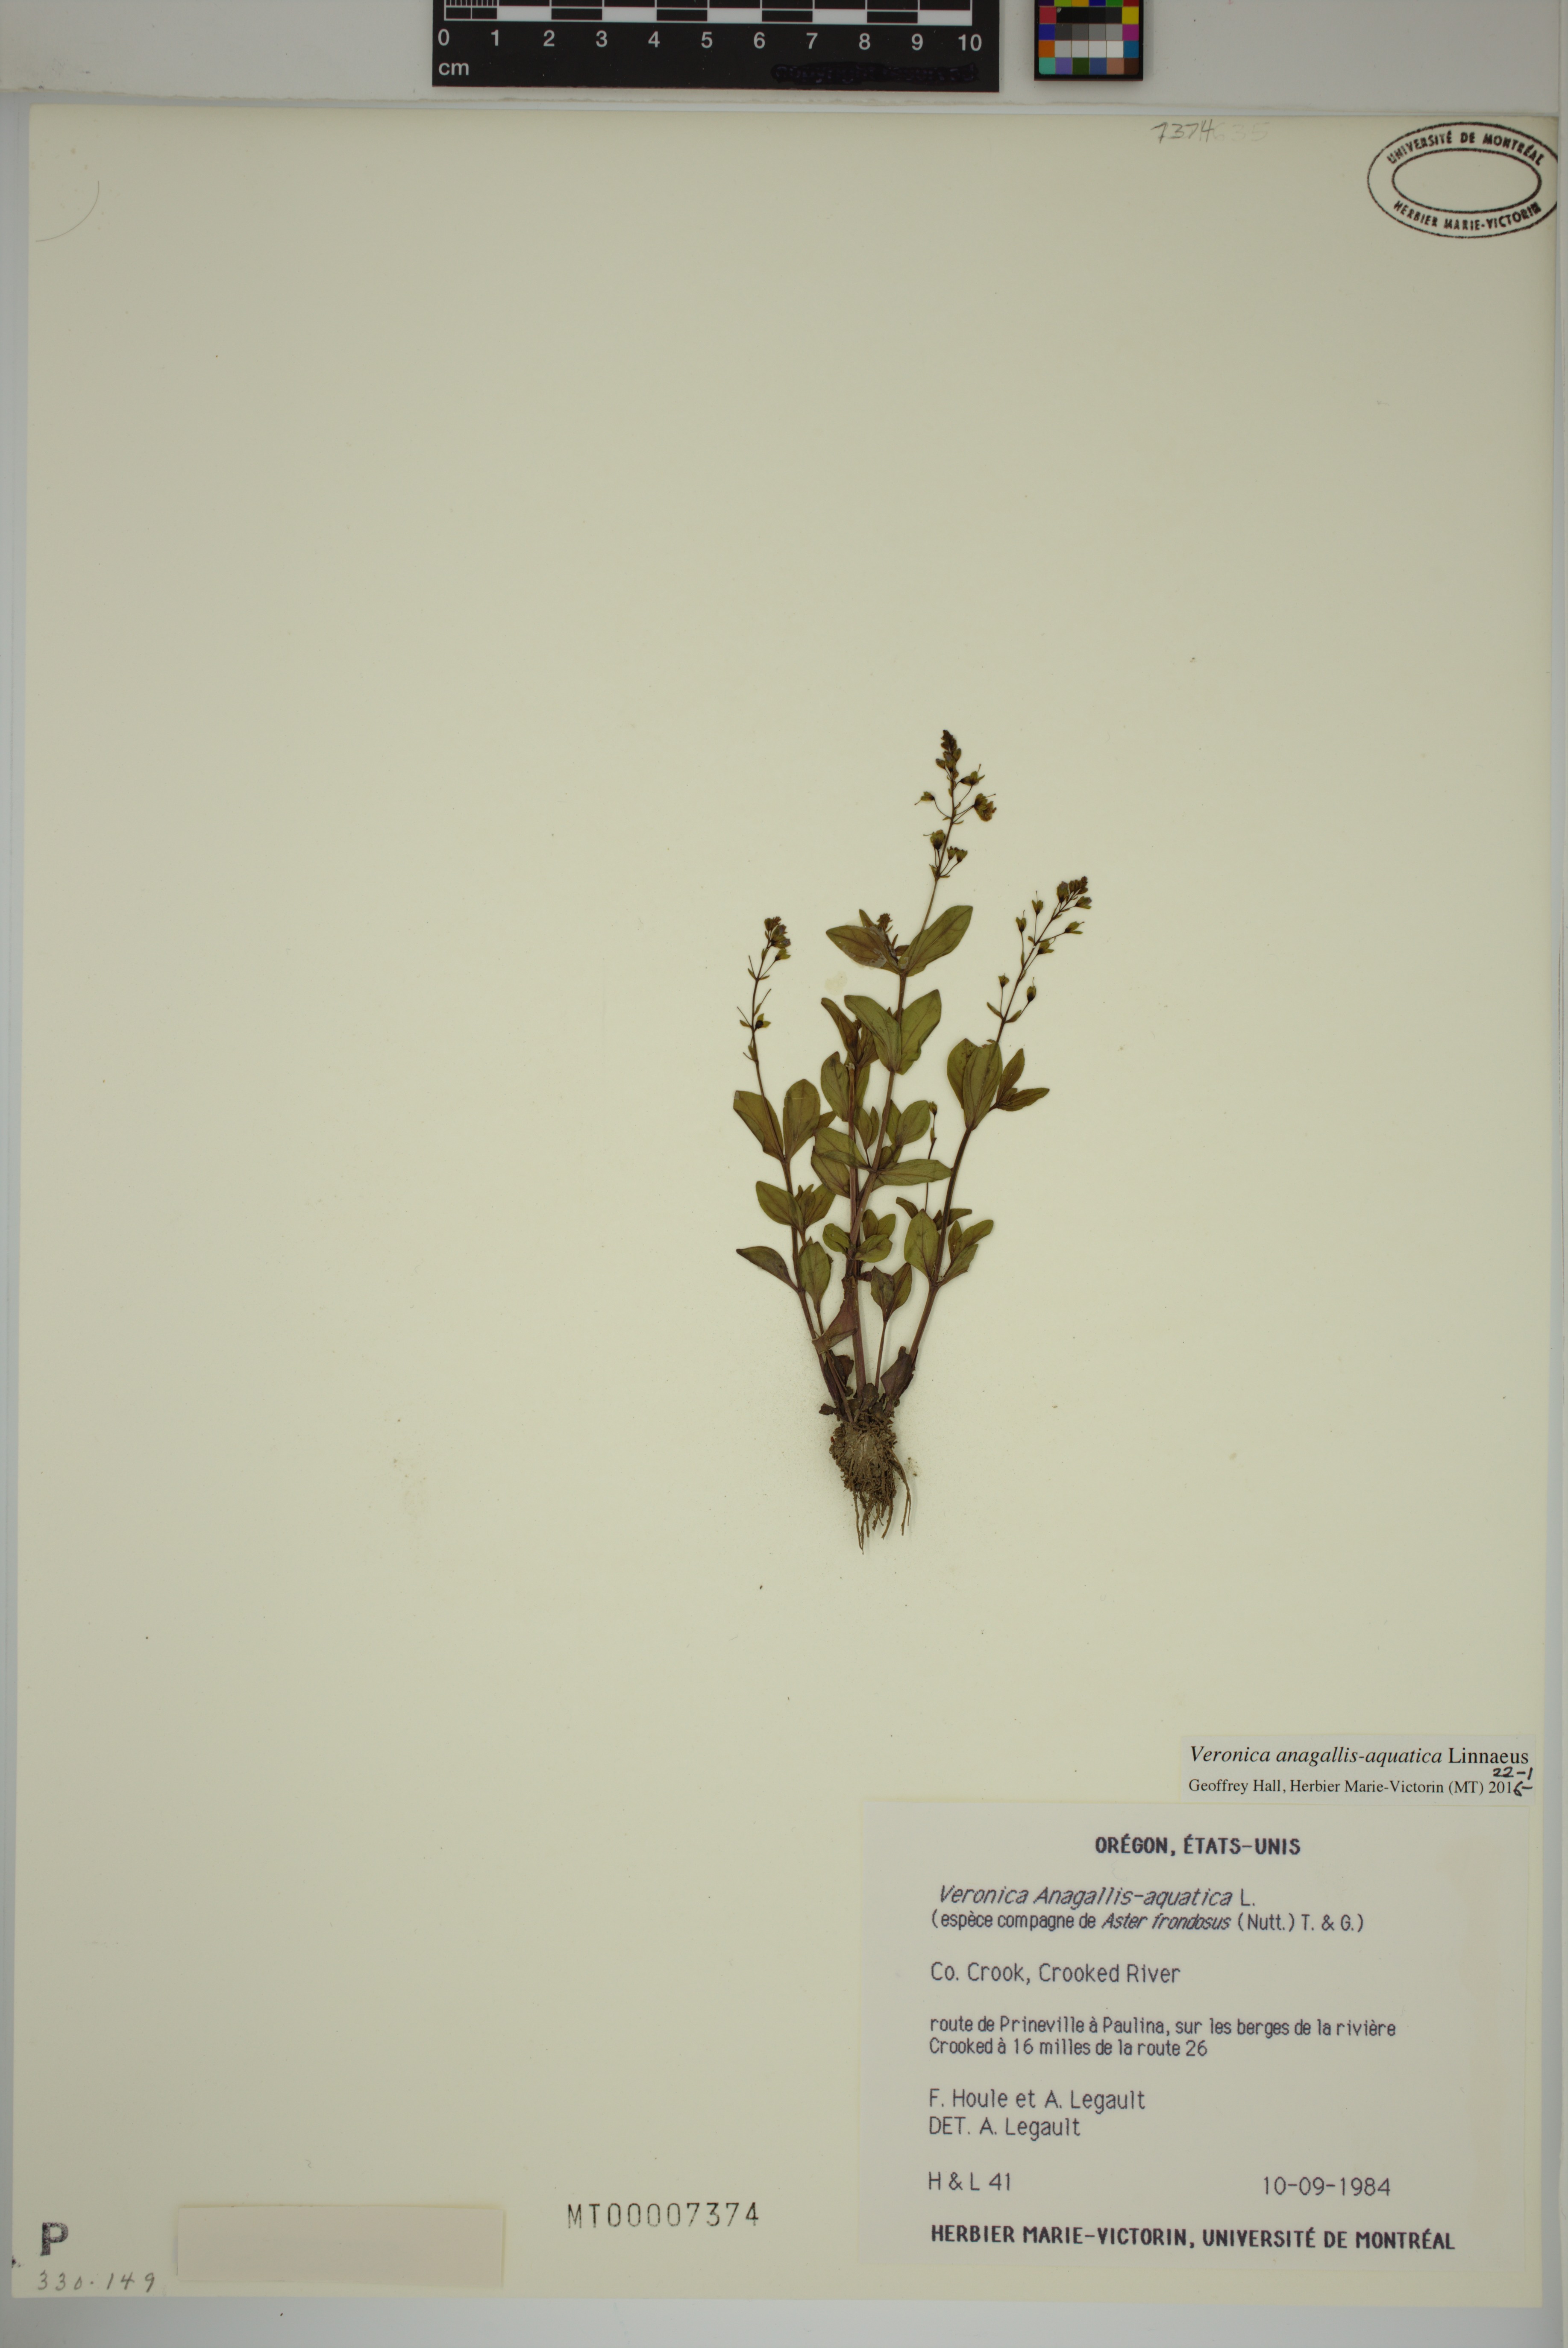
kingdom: Plantae
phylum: Tracheophyta
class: Magnoliopsida
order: Lamiales
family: Plantaginaceae
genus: Veronica
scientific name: Veronica anagallis-aquatica
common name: Water speedwell
